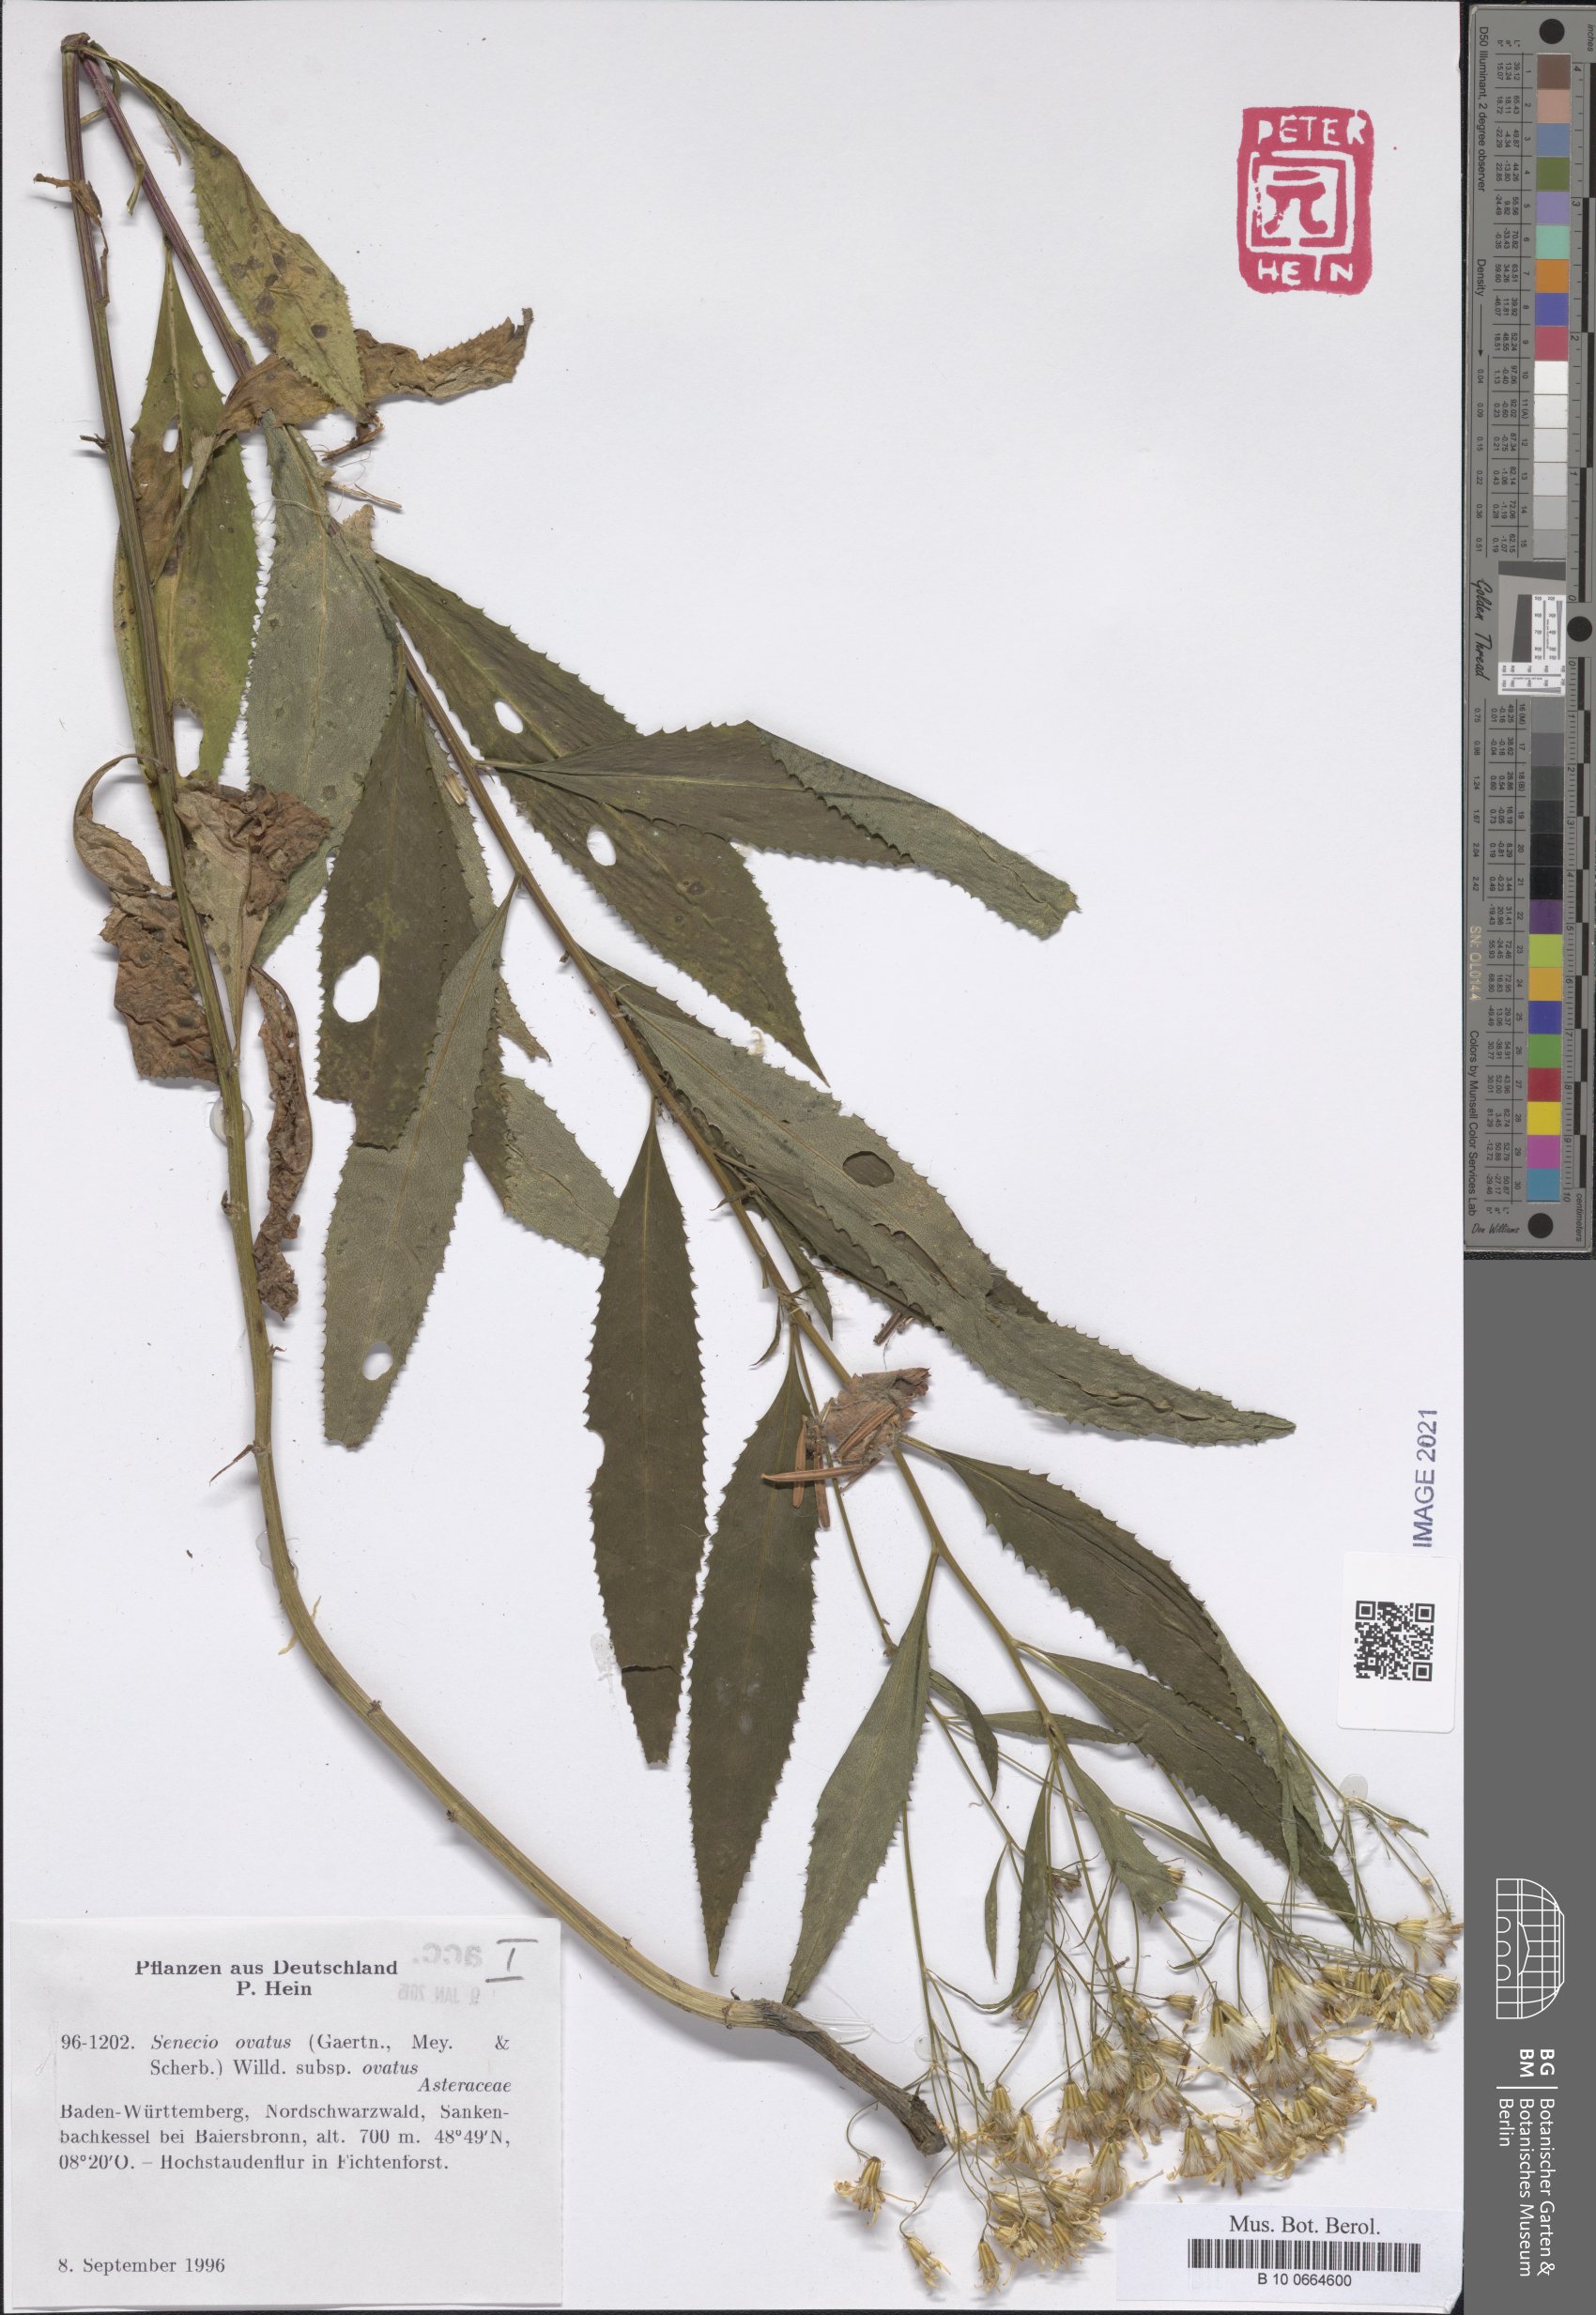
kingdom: Plantae
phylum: Tracheophyta
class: Magnoliopsida
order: Asterales
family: Asteraceae
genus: Senecio
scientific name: Senecio ovatus
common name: Wood ragwort
